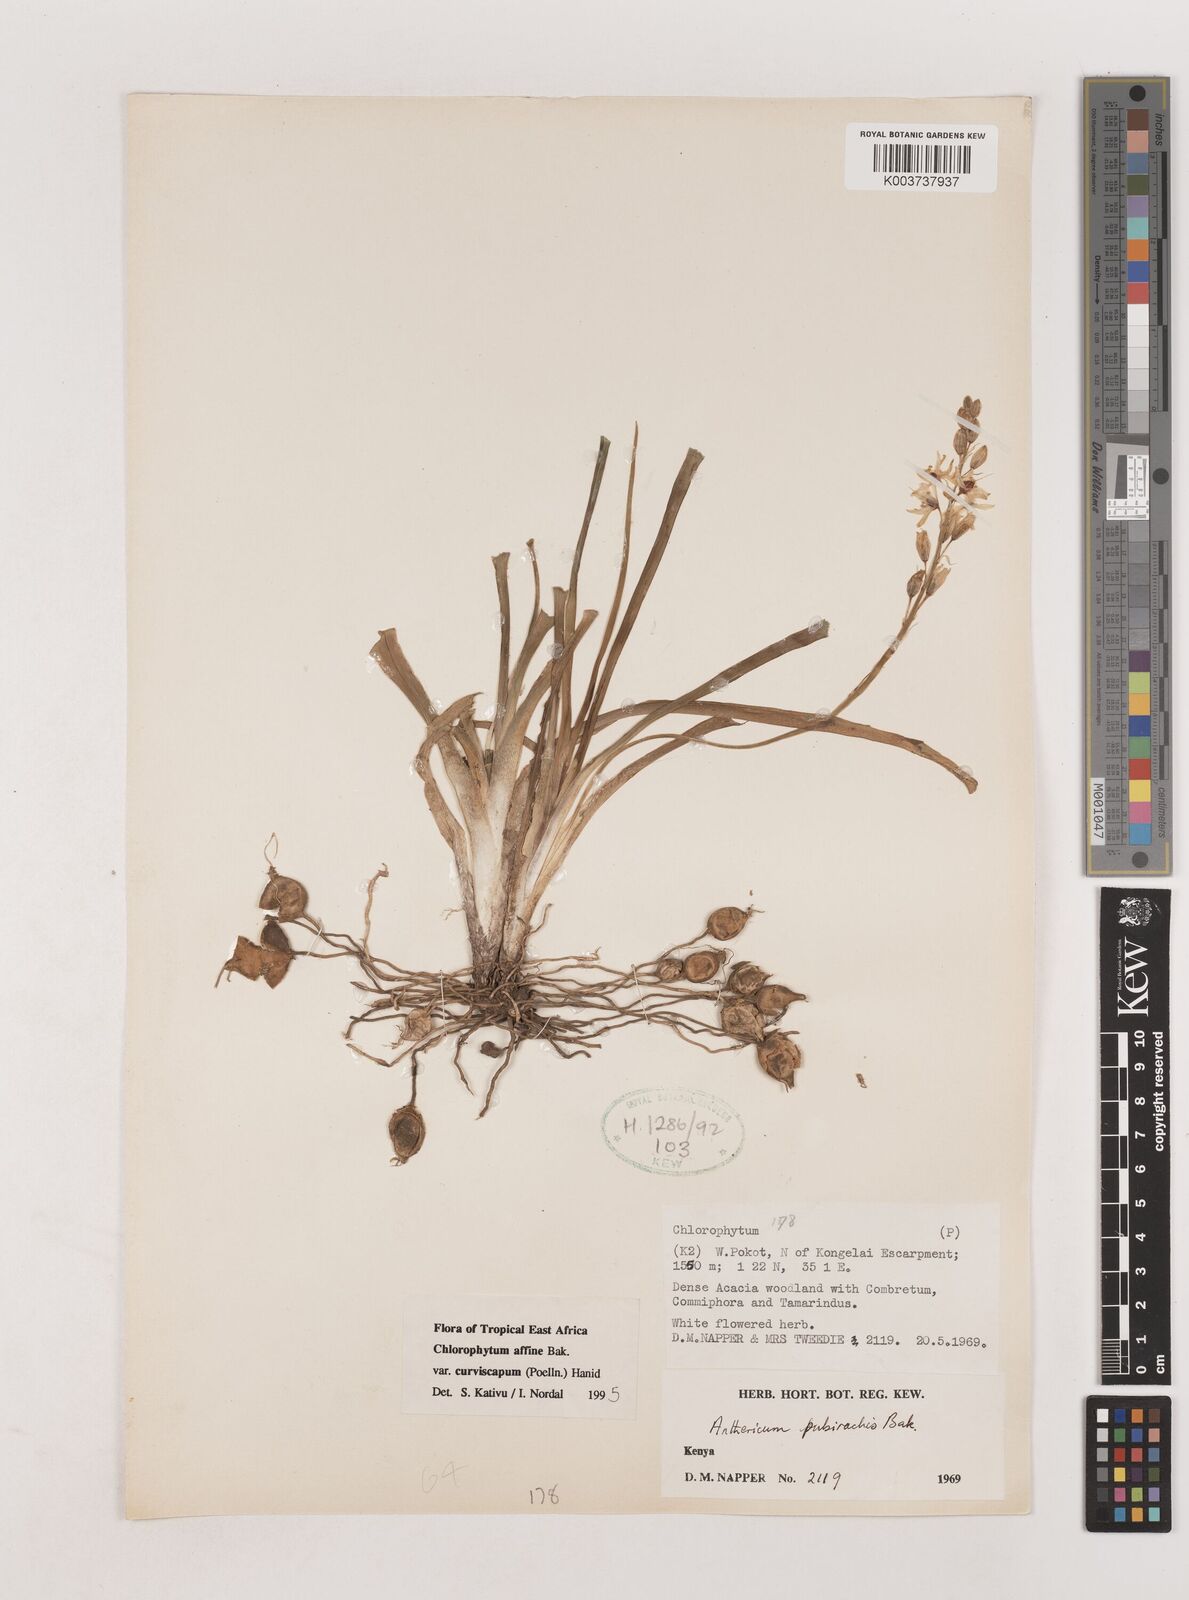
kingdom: Plantae
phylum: Tracheophyta
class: Liliopsida
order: Asparagales
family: Asparagaceae
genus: Chlorophytum
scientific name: Chlorophytum tordense
